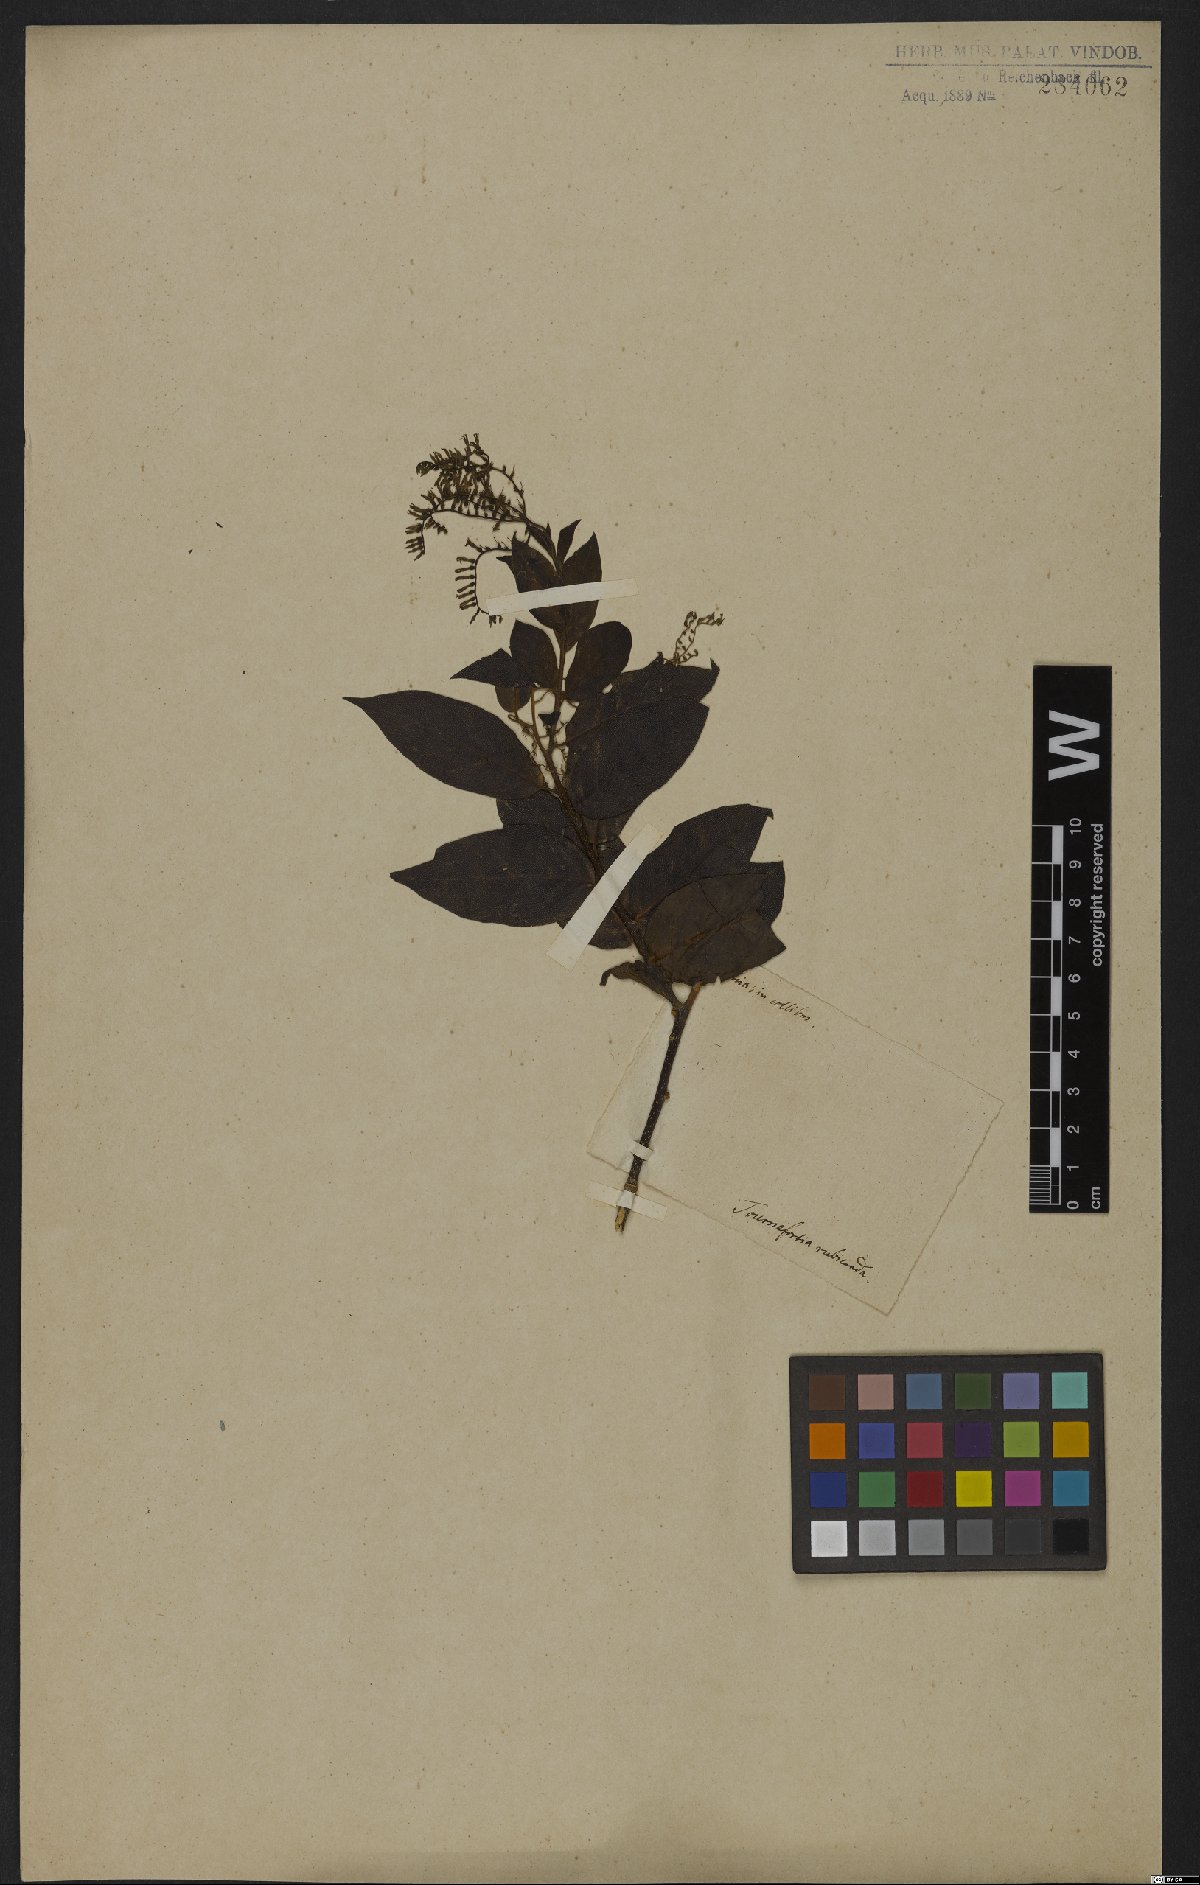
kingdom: Plantae
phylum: Tracheophyta
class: Magnoliopsida
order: Boraginales
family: Heliotropiaceae
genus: Myriopus
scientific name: Myriopus rubicundus
